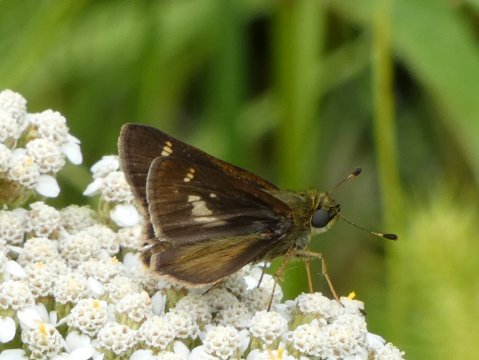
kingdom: Animalia
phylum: Arthropoda
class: Insecta
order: Lepidoptera
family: Hesperiidae
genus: Vernia
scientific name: Vernia verna
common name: Little Glassywing
